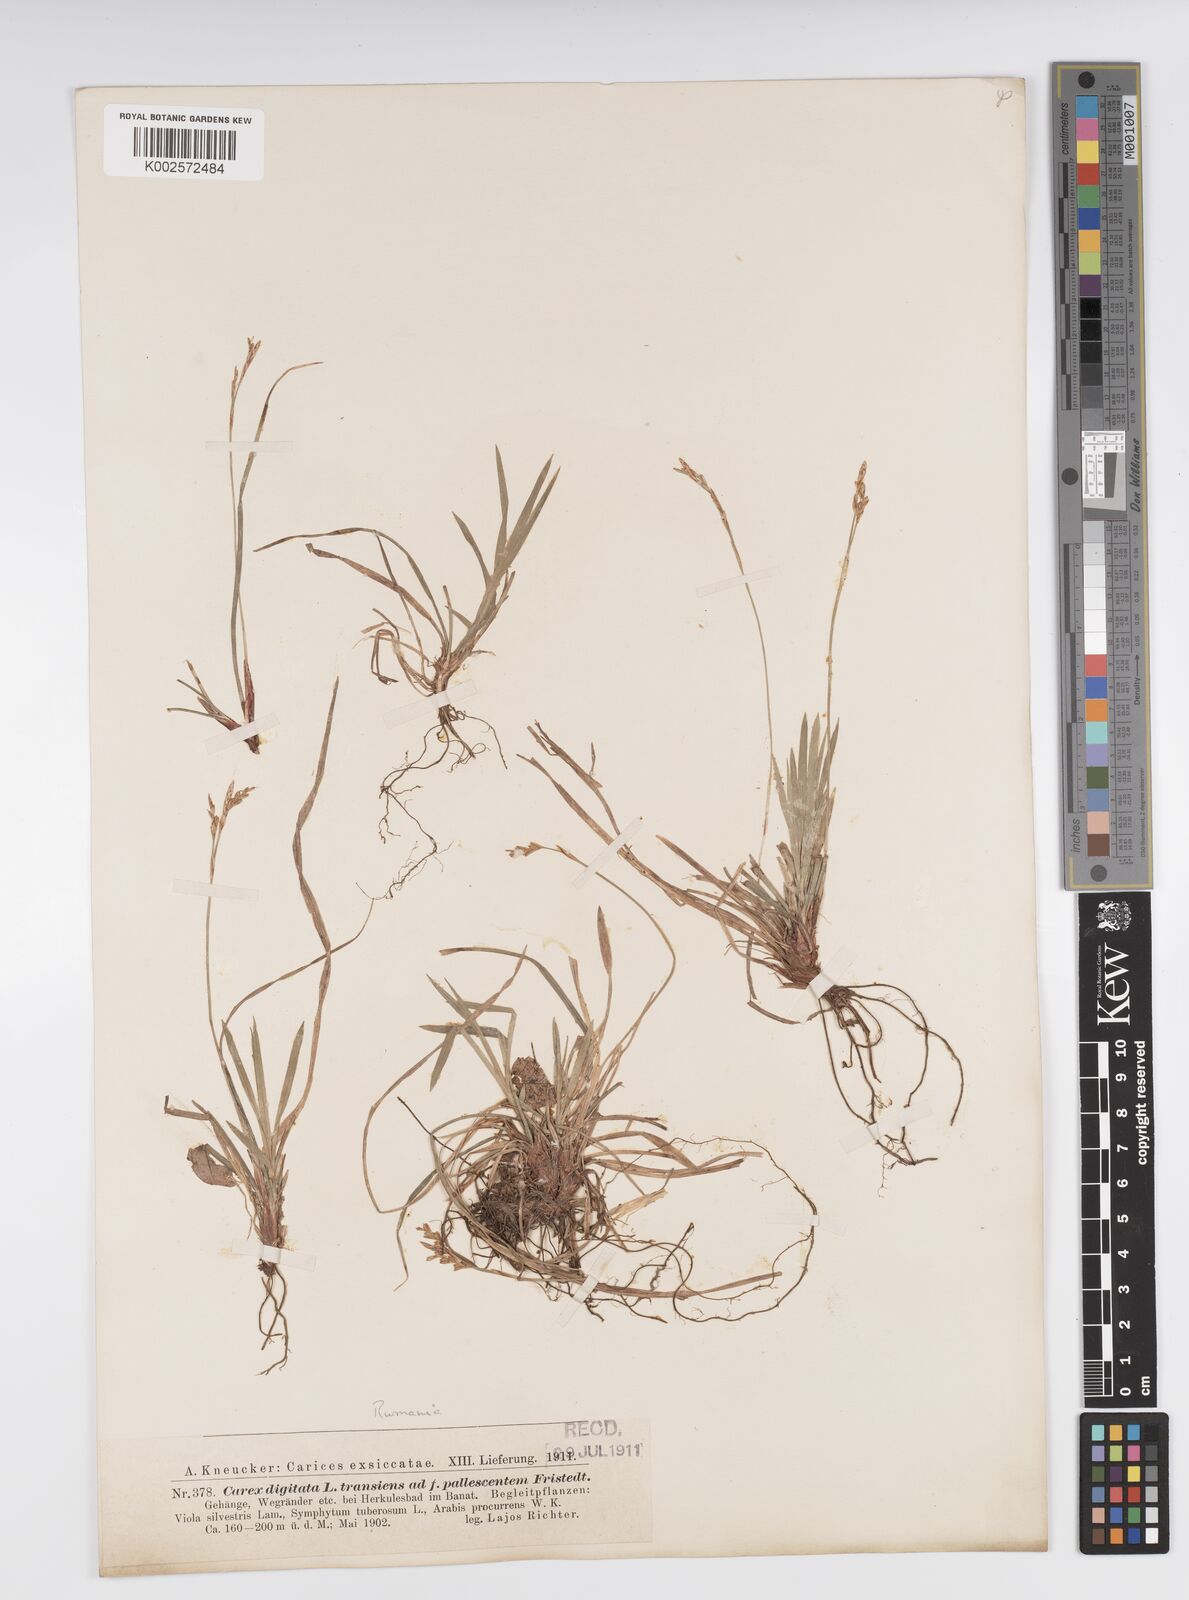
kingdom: Plantae
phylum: Tracheophyta
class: Liliopsida
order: Poales
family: Cyperaceae
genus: Carex
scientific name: Carex digitata
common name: Fingered sedge
